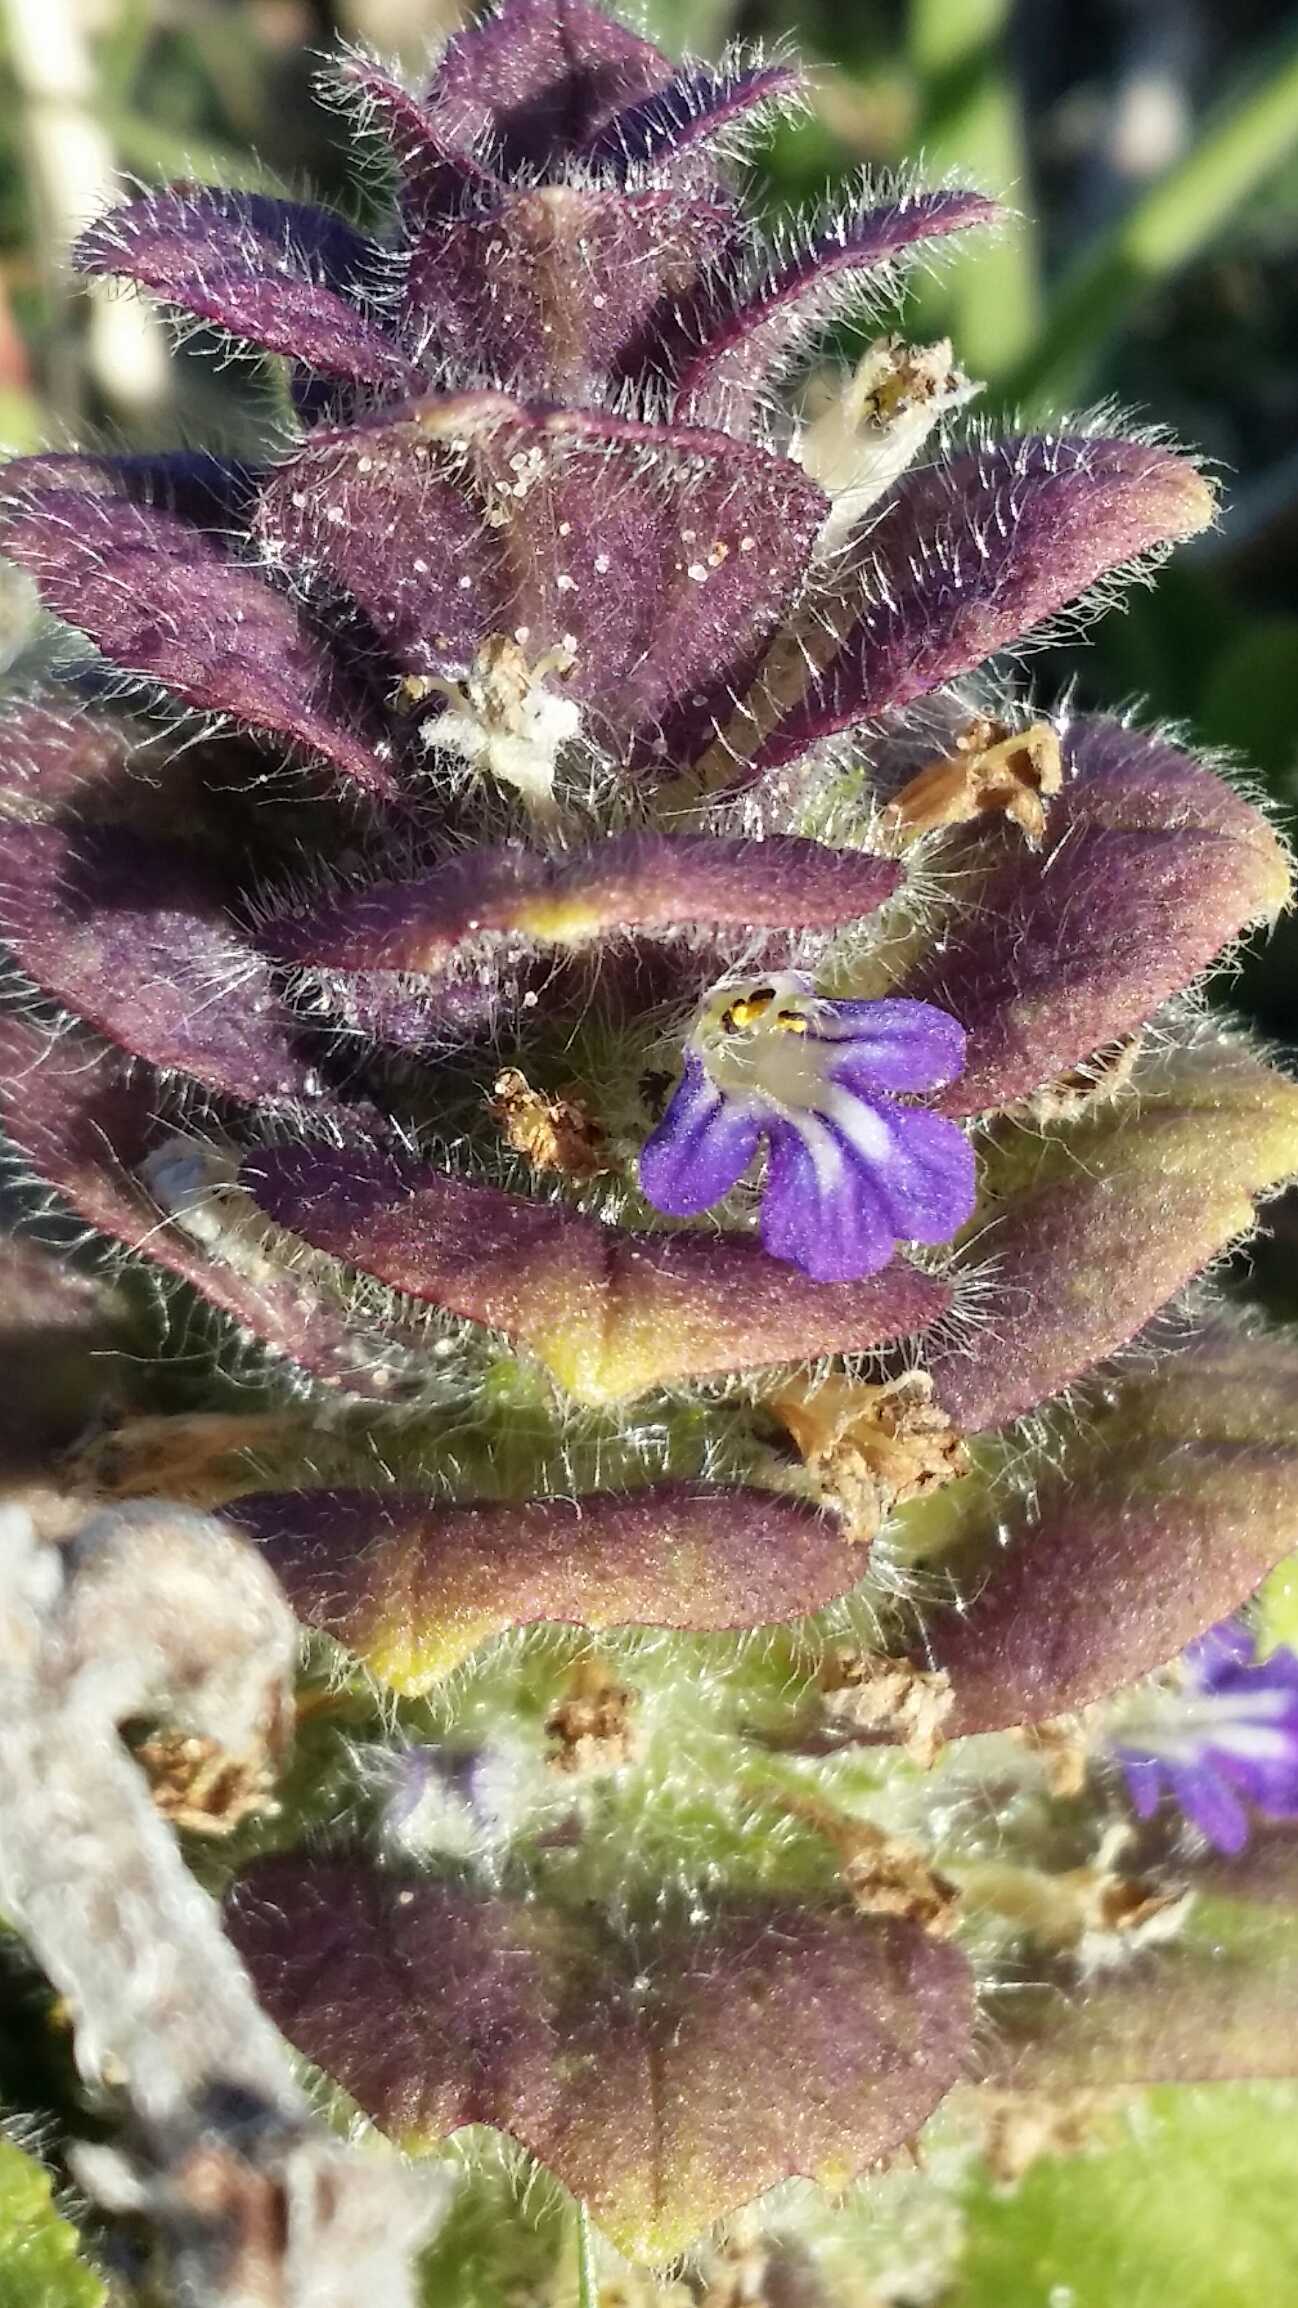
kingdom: Plantae
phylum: Tracheophyta
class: Magnoliopsida
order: Lamiales
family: Lamiaceae
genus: Ajuga
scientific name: Ajuga pyramidalis
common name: Pyramide-læbeløs
